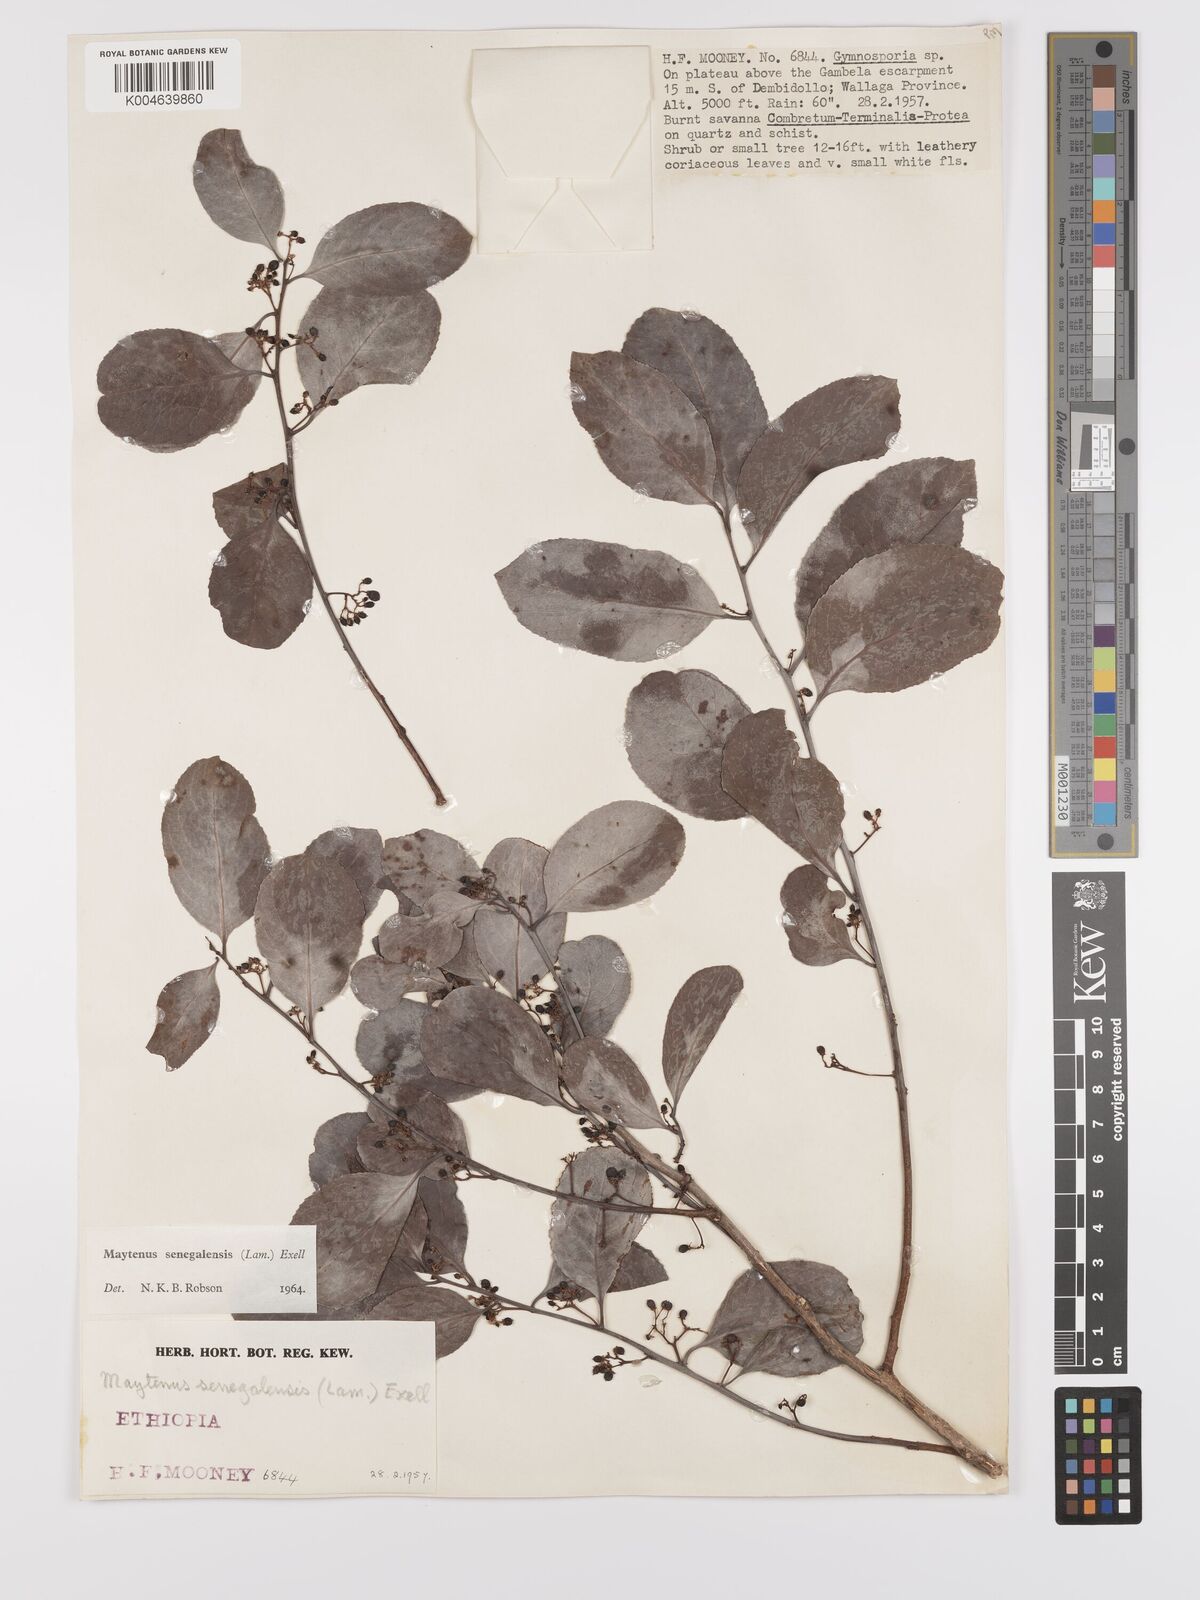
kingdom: Plantae
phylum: Tracheophyta
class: Magnoliopsida
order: Celastrales
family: Celastraceae
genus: Gymnosporia
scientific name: Gymnosporia senegalensis
